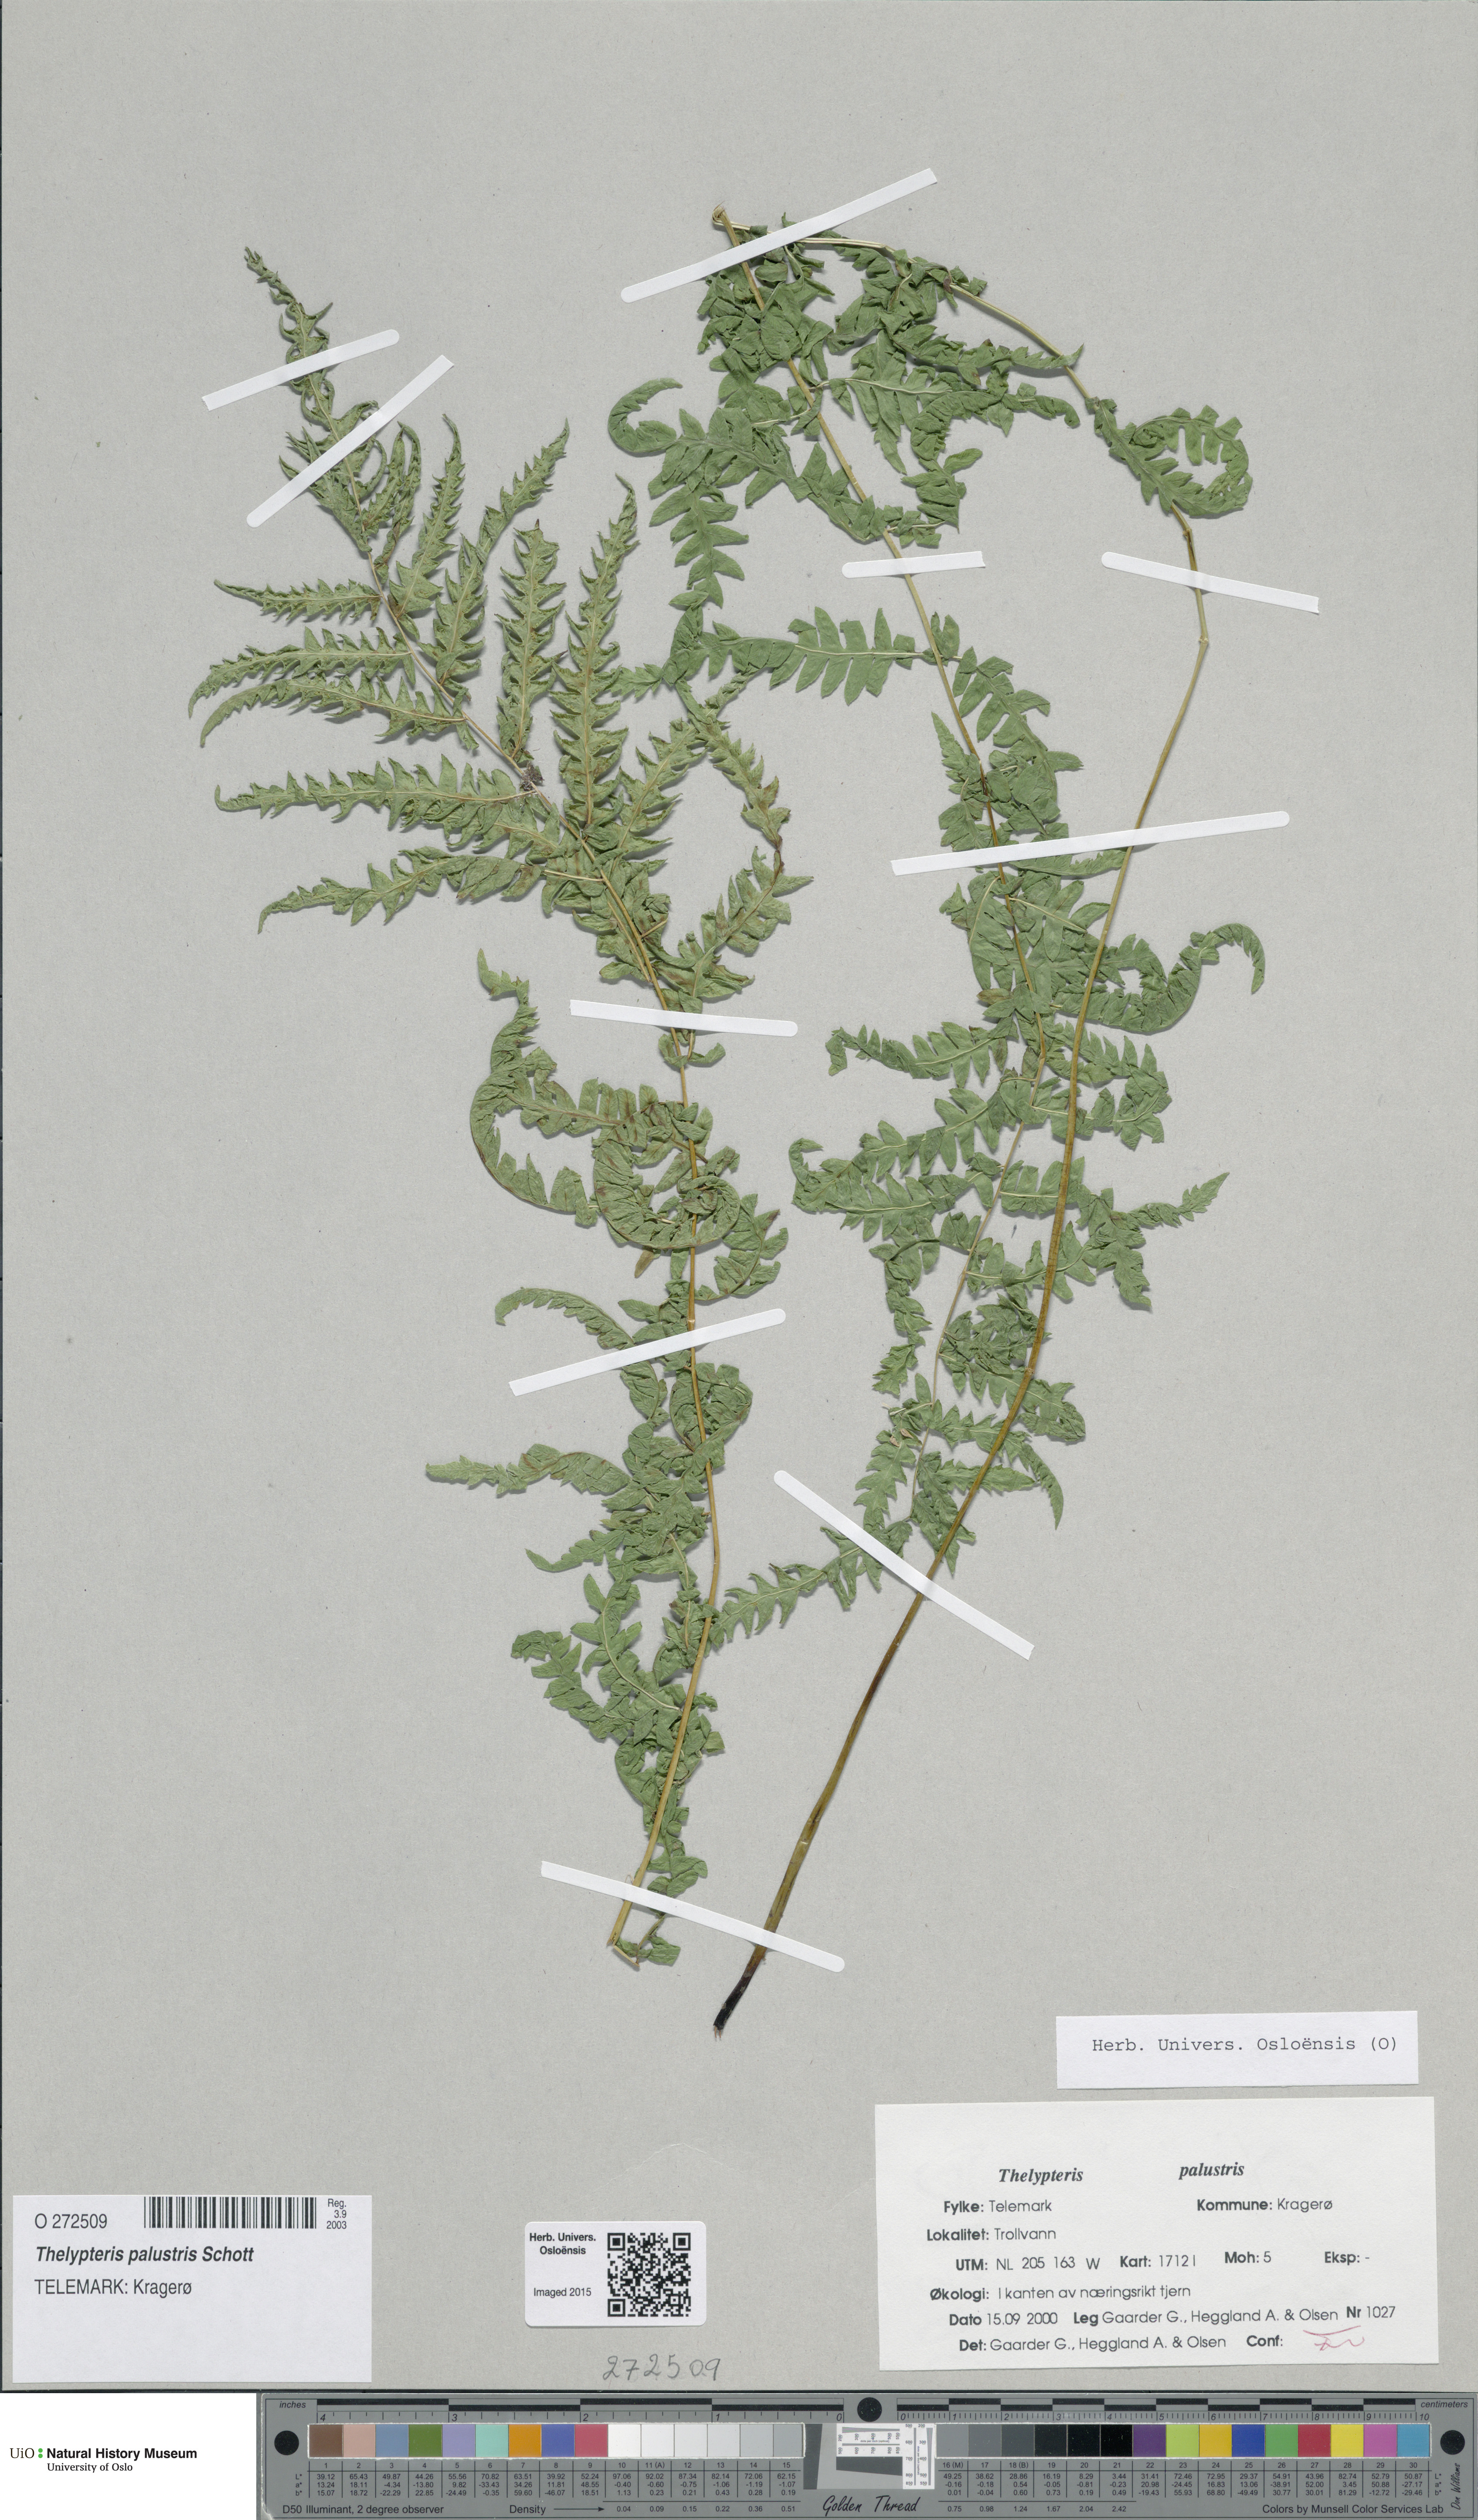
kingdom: Plantae
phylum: Tracheophyta
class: Polypodiopsida
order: Polypodiales
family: Thelypteridaceae
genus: Thelypteris
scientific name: Thelypteris palustris
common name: Marsh fern
